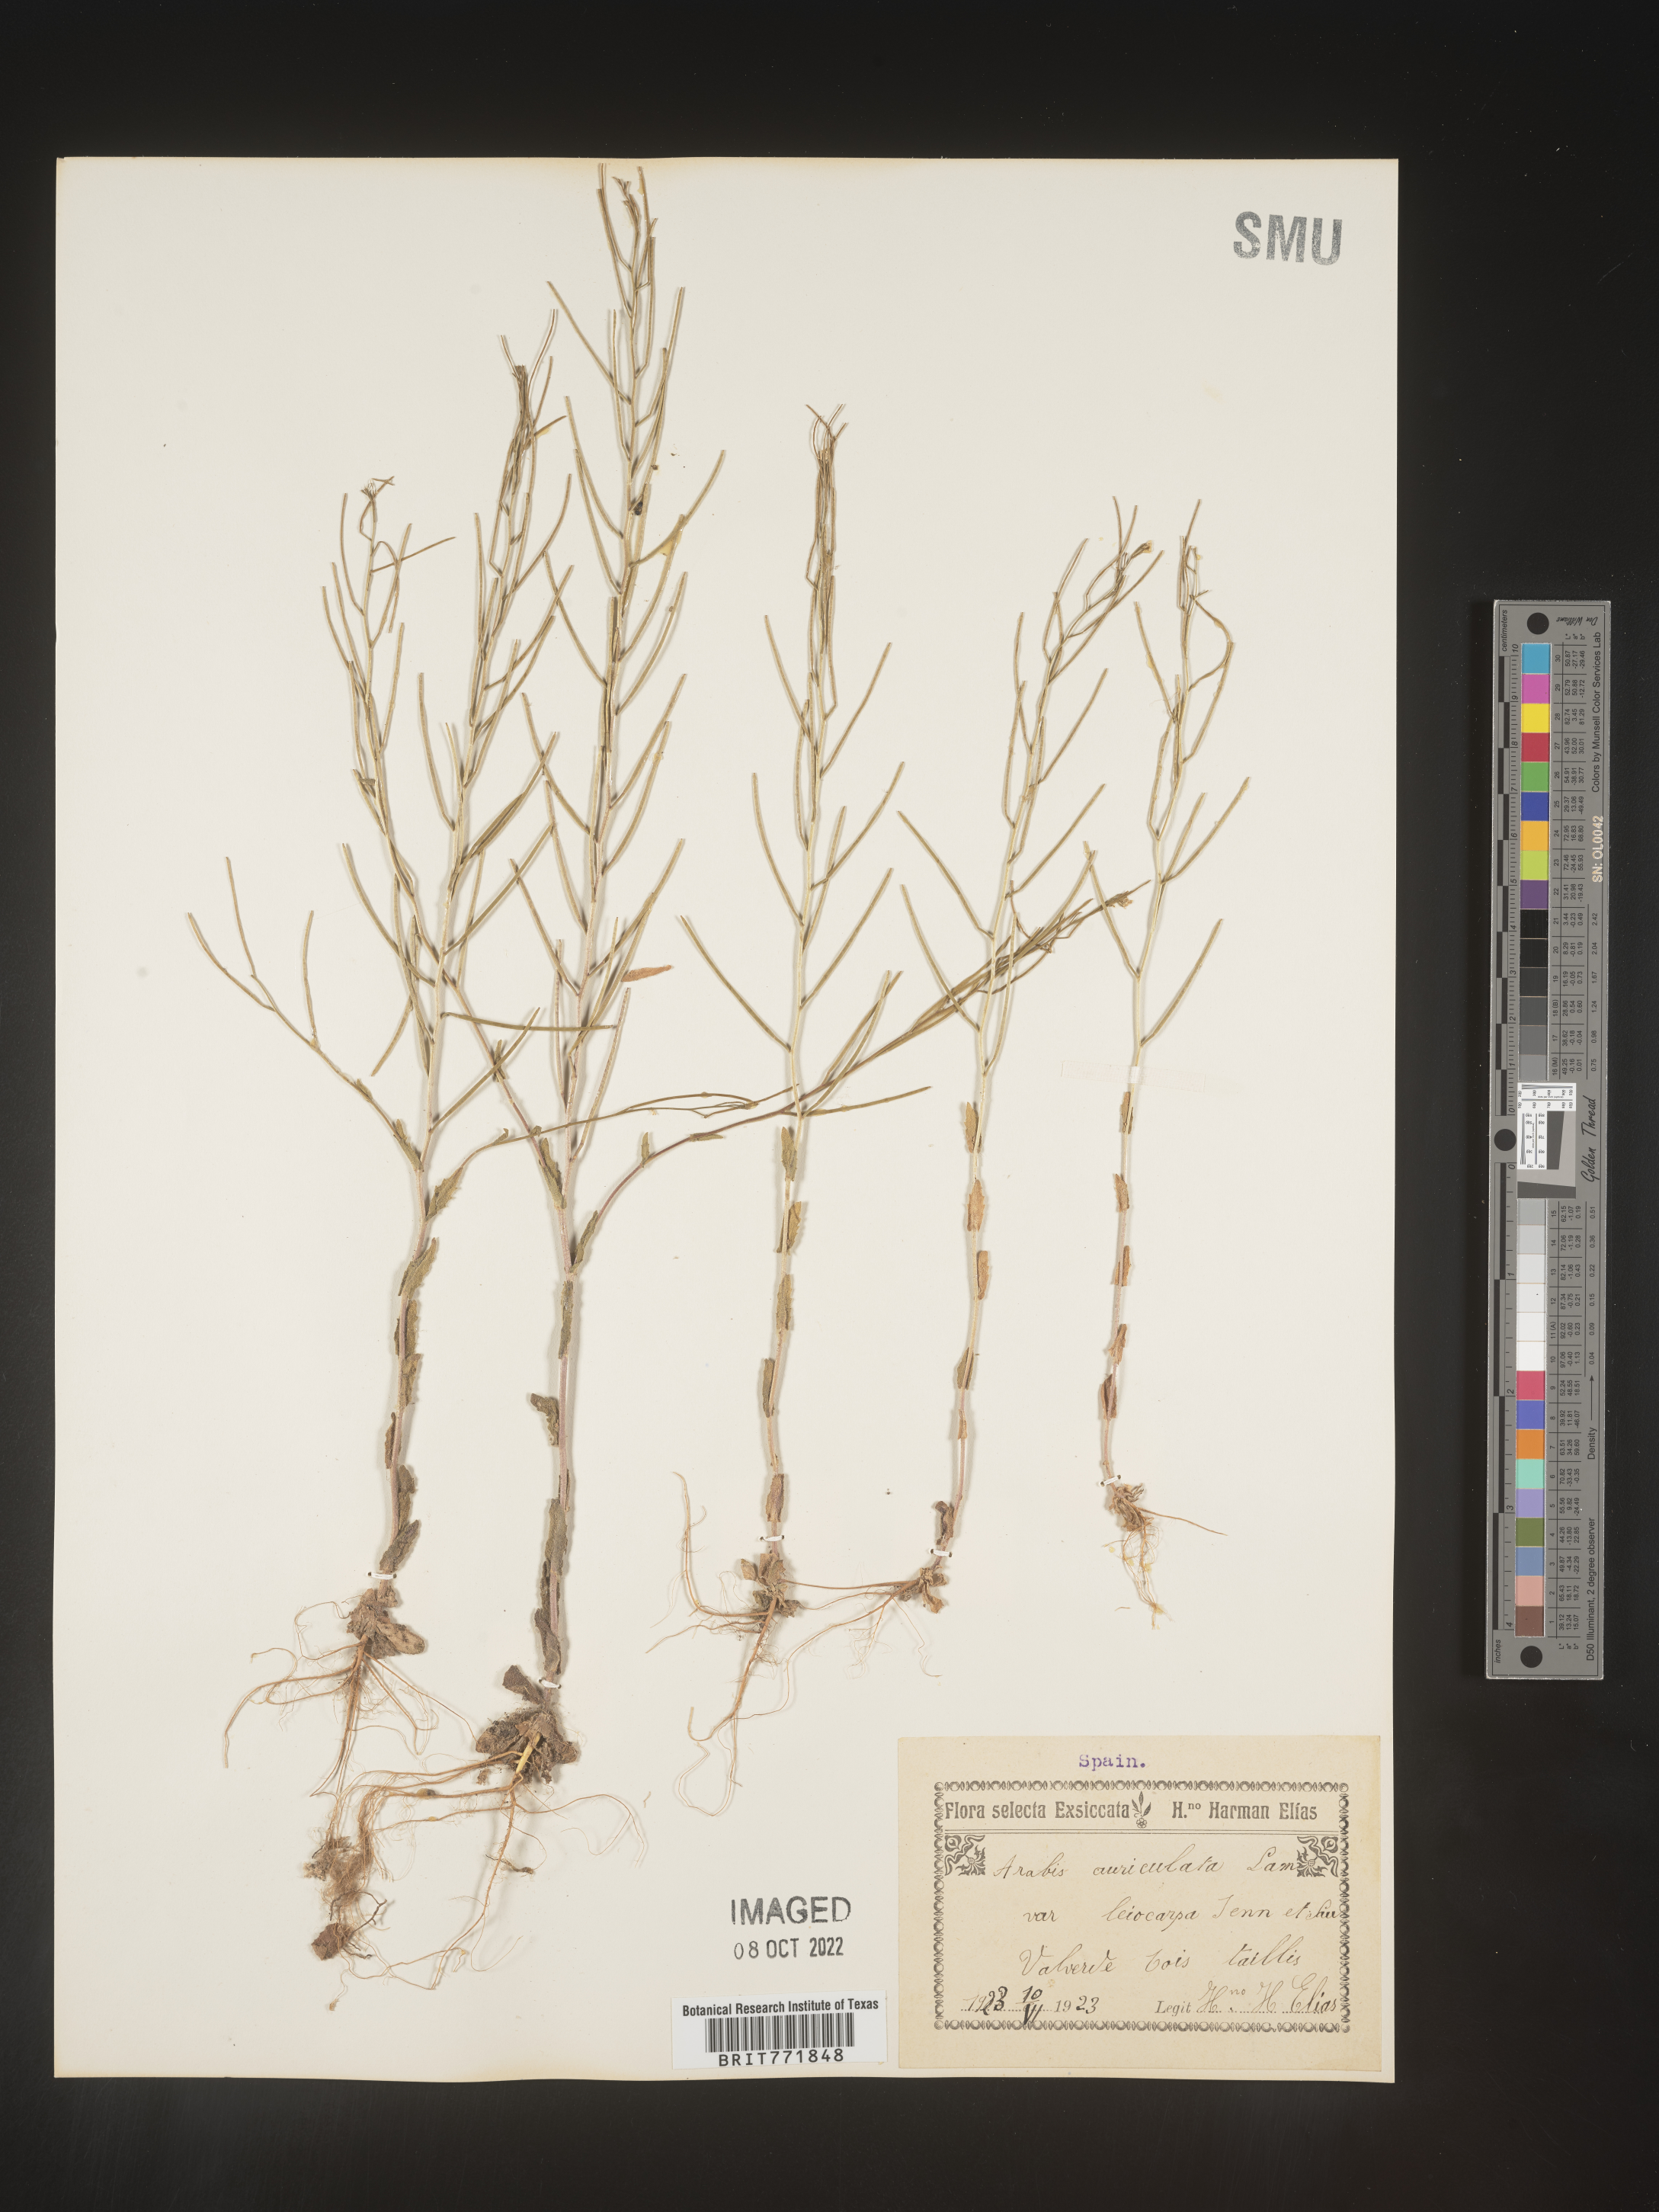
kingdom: Plantae
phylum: Tracheophyta
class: Magnoliopsida
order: Brassicales
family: Brassicaceae
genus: Arabis
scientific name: Arabis
